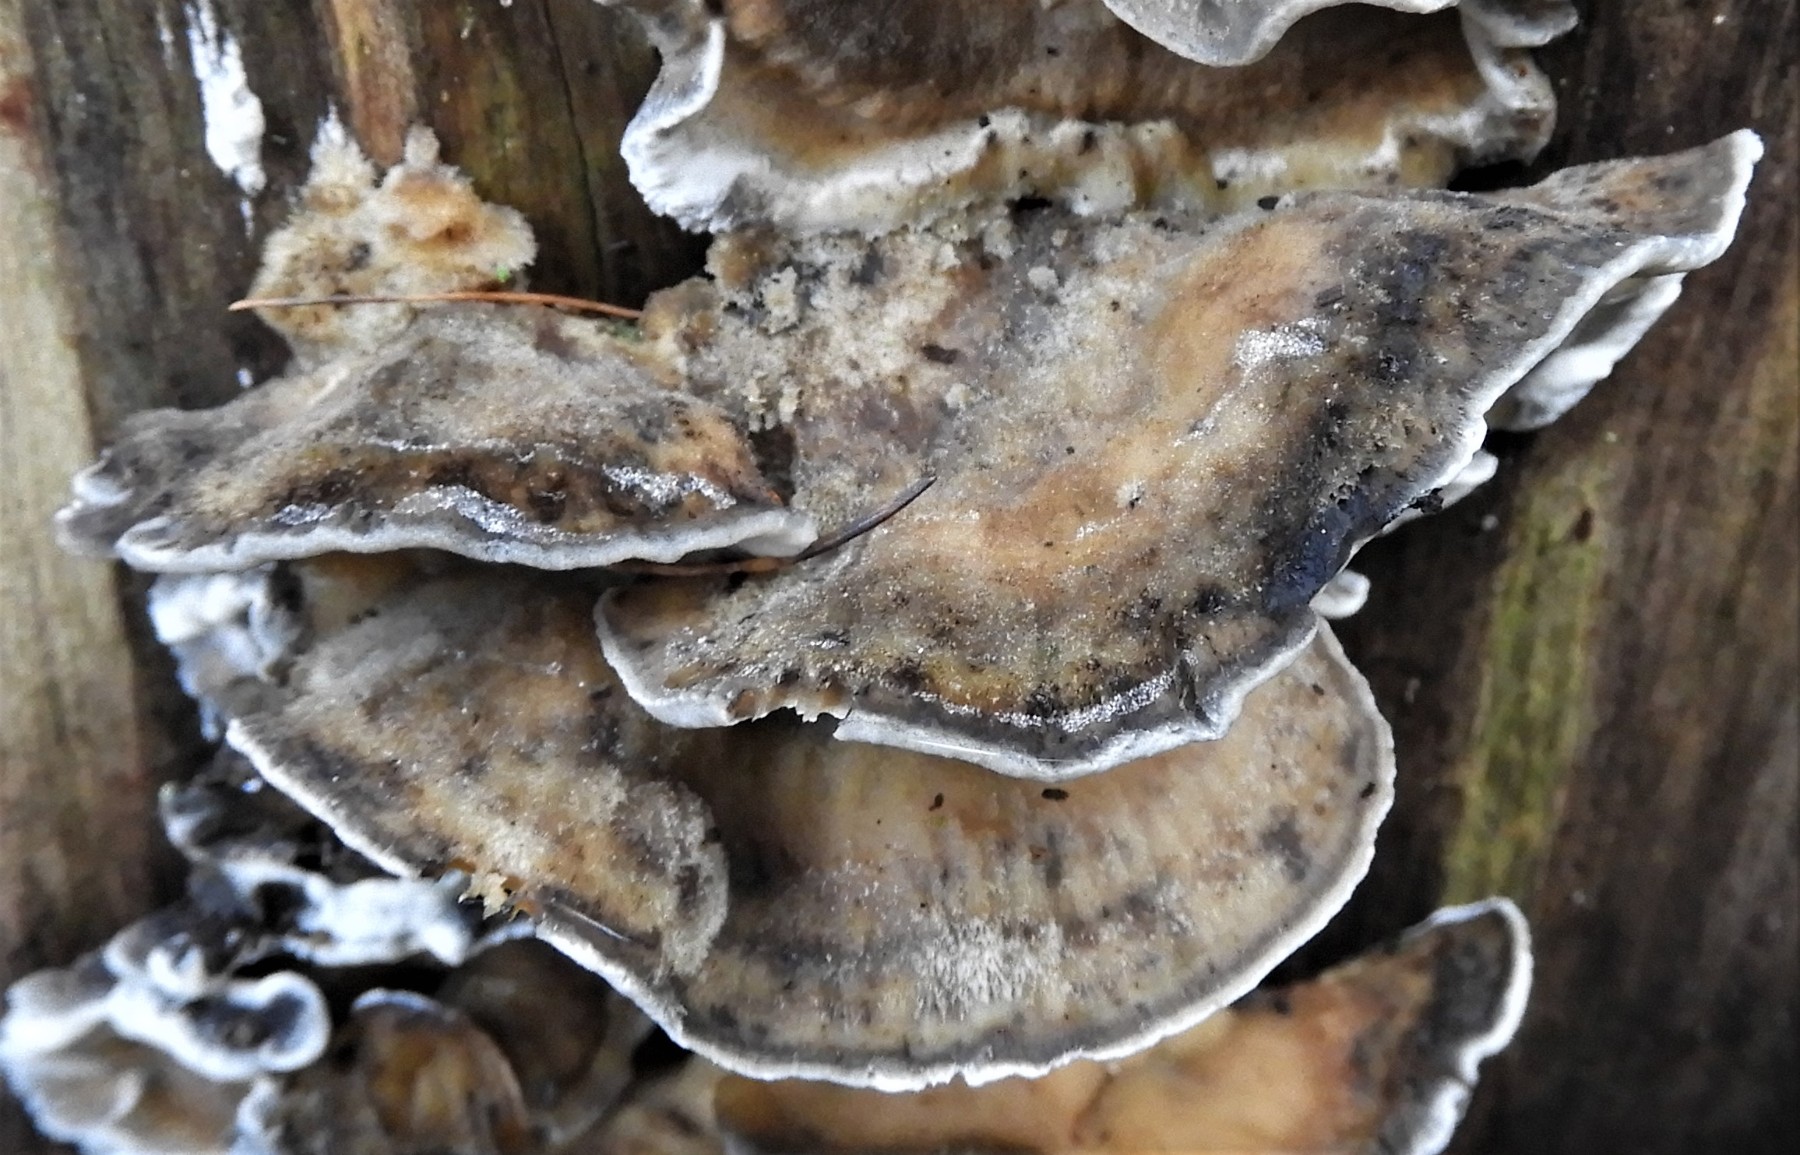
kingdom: Fungi
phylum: Basidiomycota
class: Agaricomycetes
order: Polyporales
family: Phanerochaetaceae
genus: Bjerkandera
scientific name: Bjerkandera adusta
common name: sveden sodporesvamp
